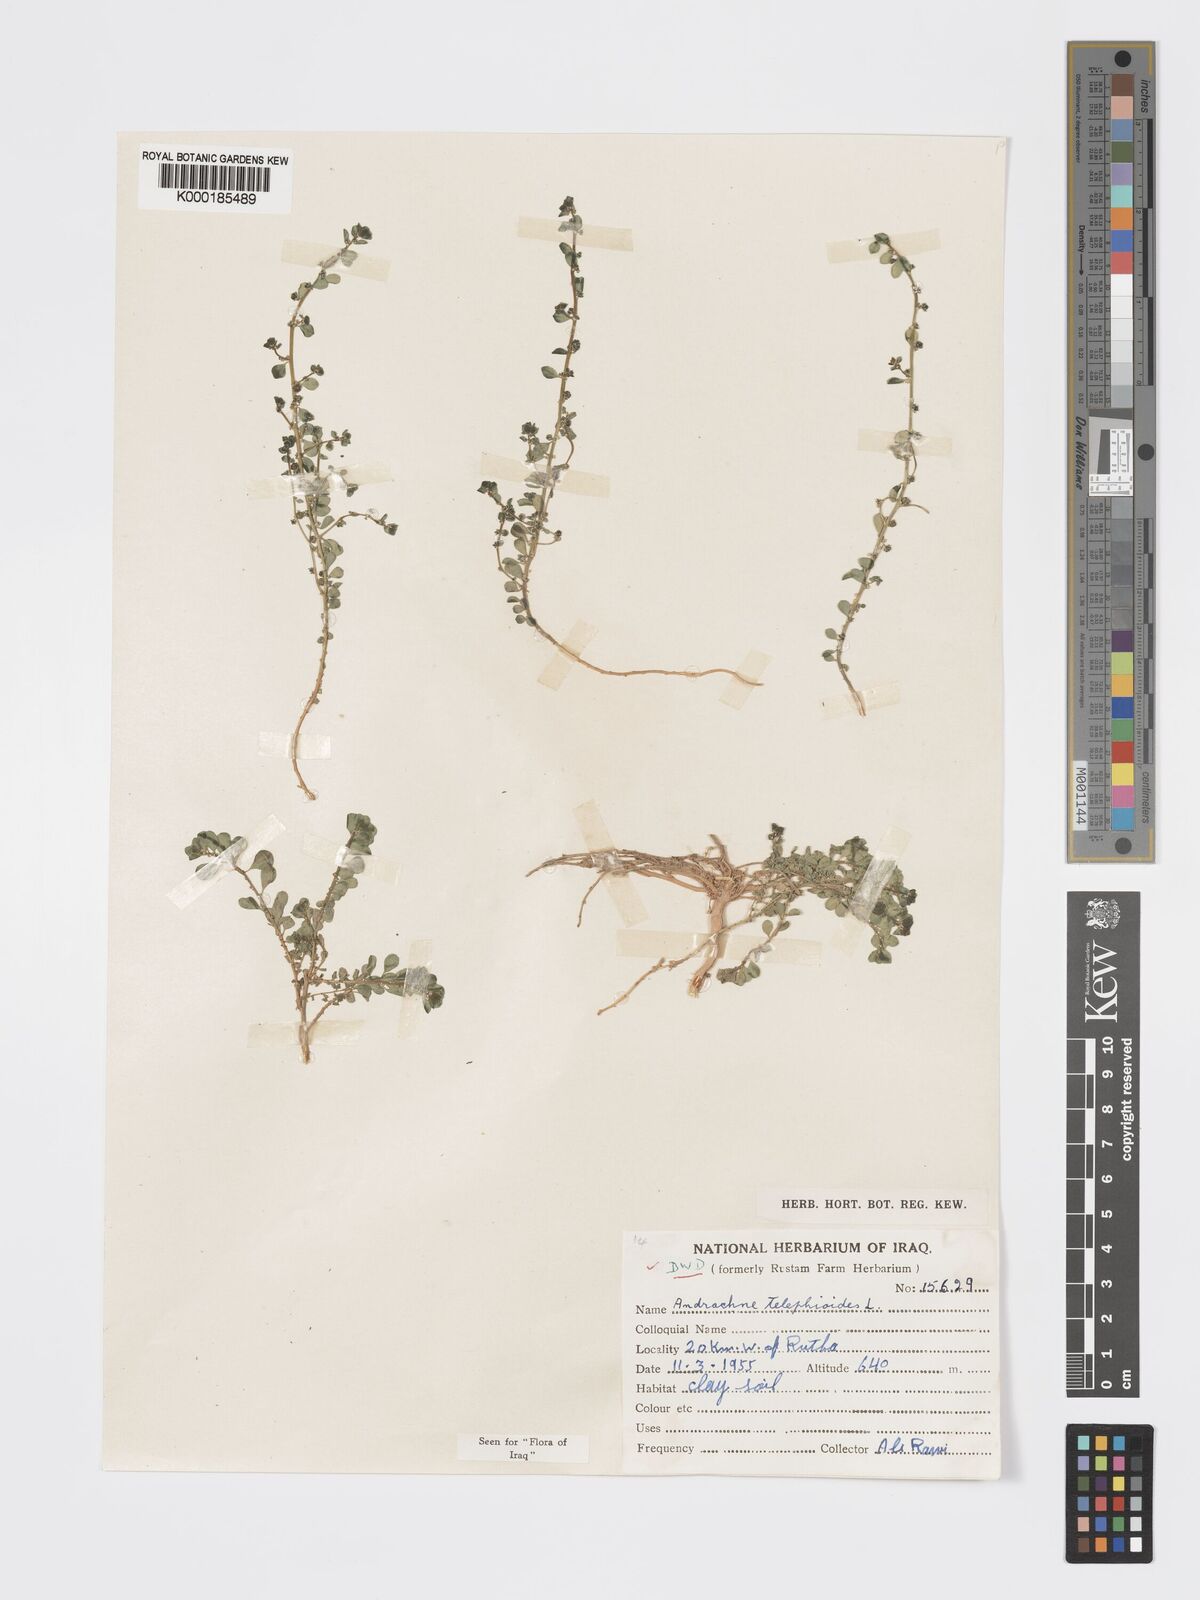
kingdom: Plantae
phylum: Tracheophyta
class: Magnoliopsida
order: Malpighiales
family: Phyllanthaceae
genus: Andrachne
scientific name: Andrachne telephioides
